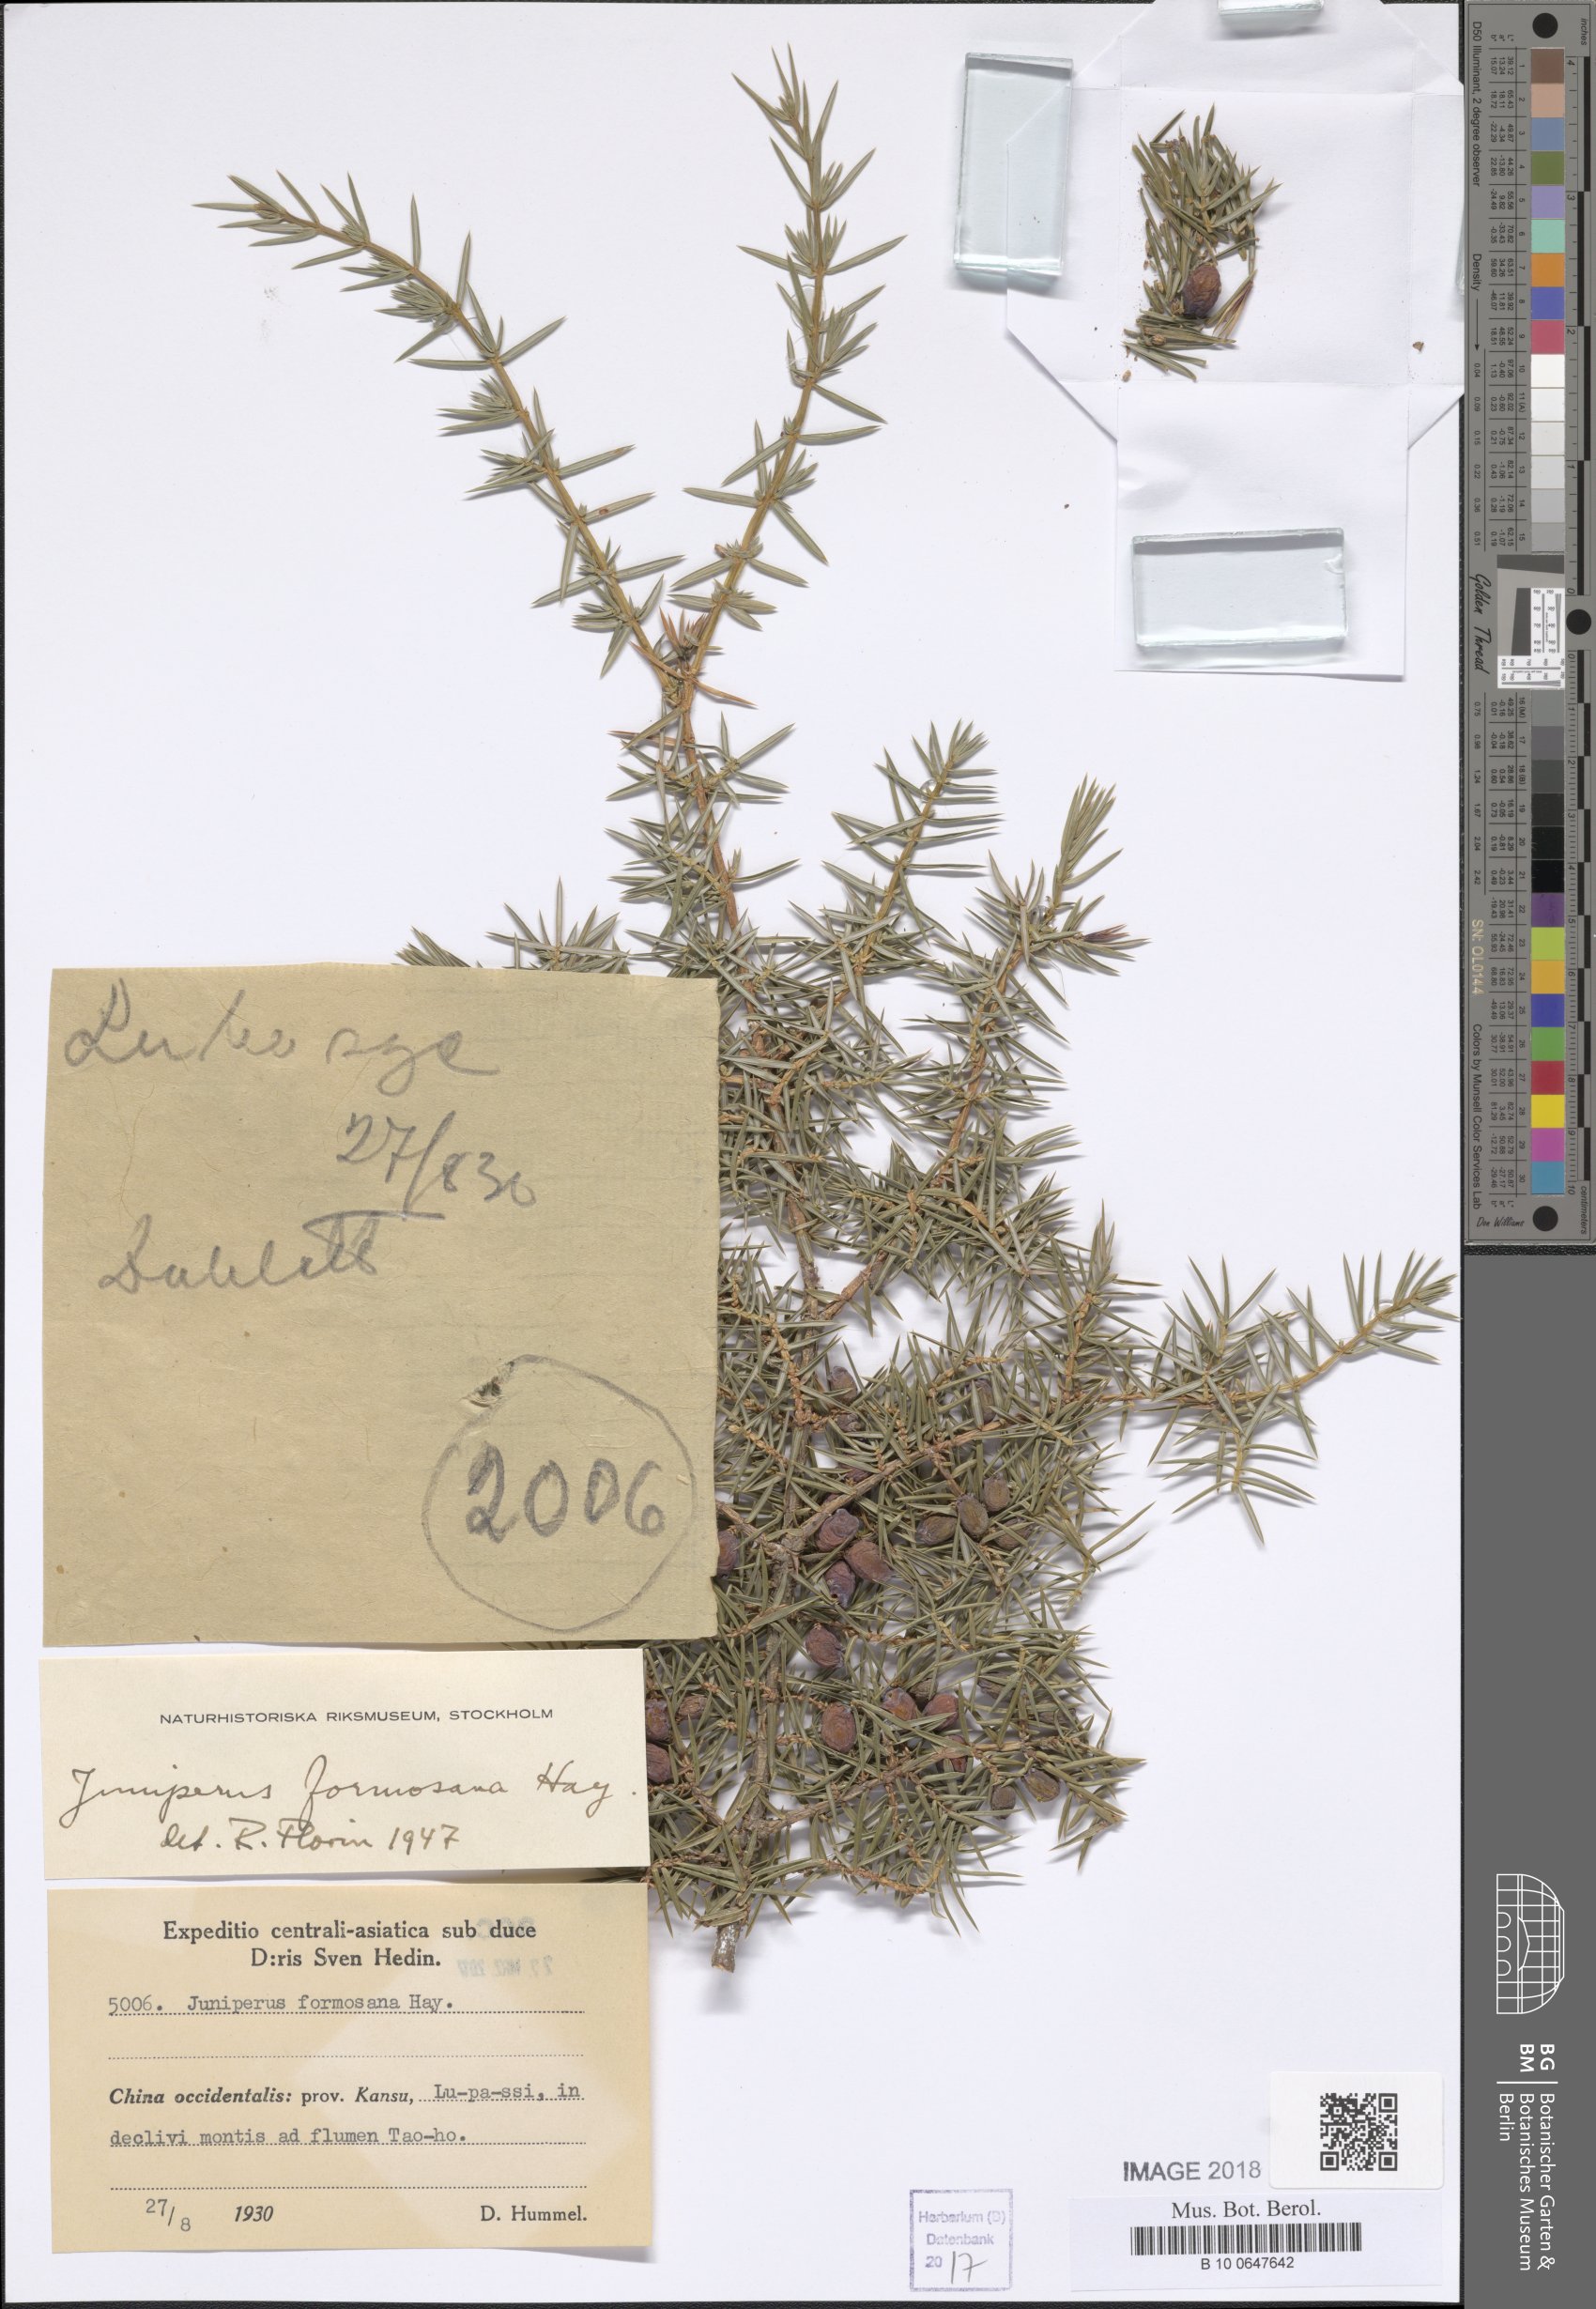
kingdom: Plantae
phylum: Tracheophyta
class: Pinopsida
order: Pinales
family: Cupressaceae
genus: Juniperus
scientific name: Juniperus formosana
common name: Formosan juniper
